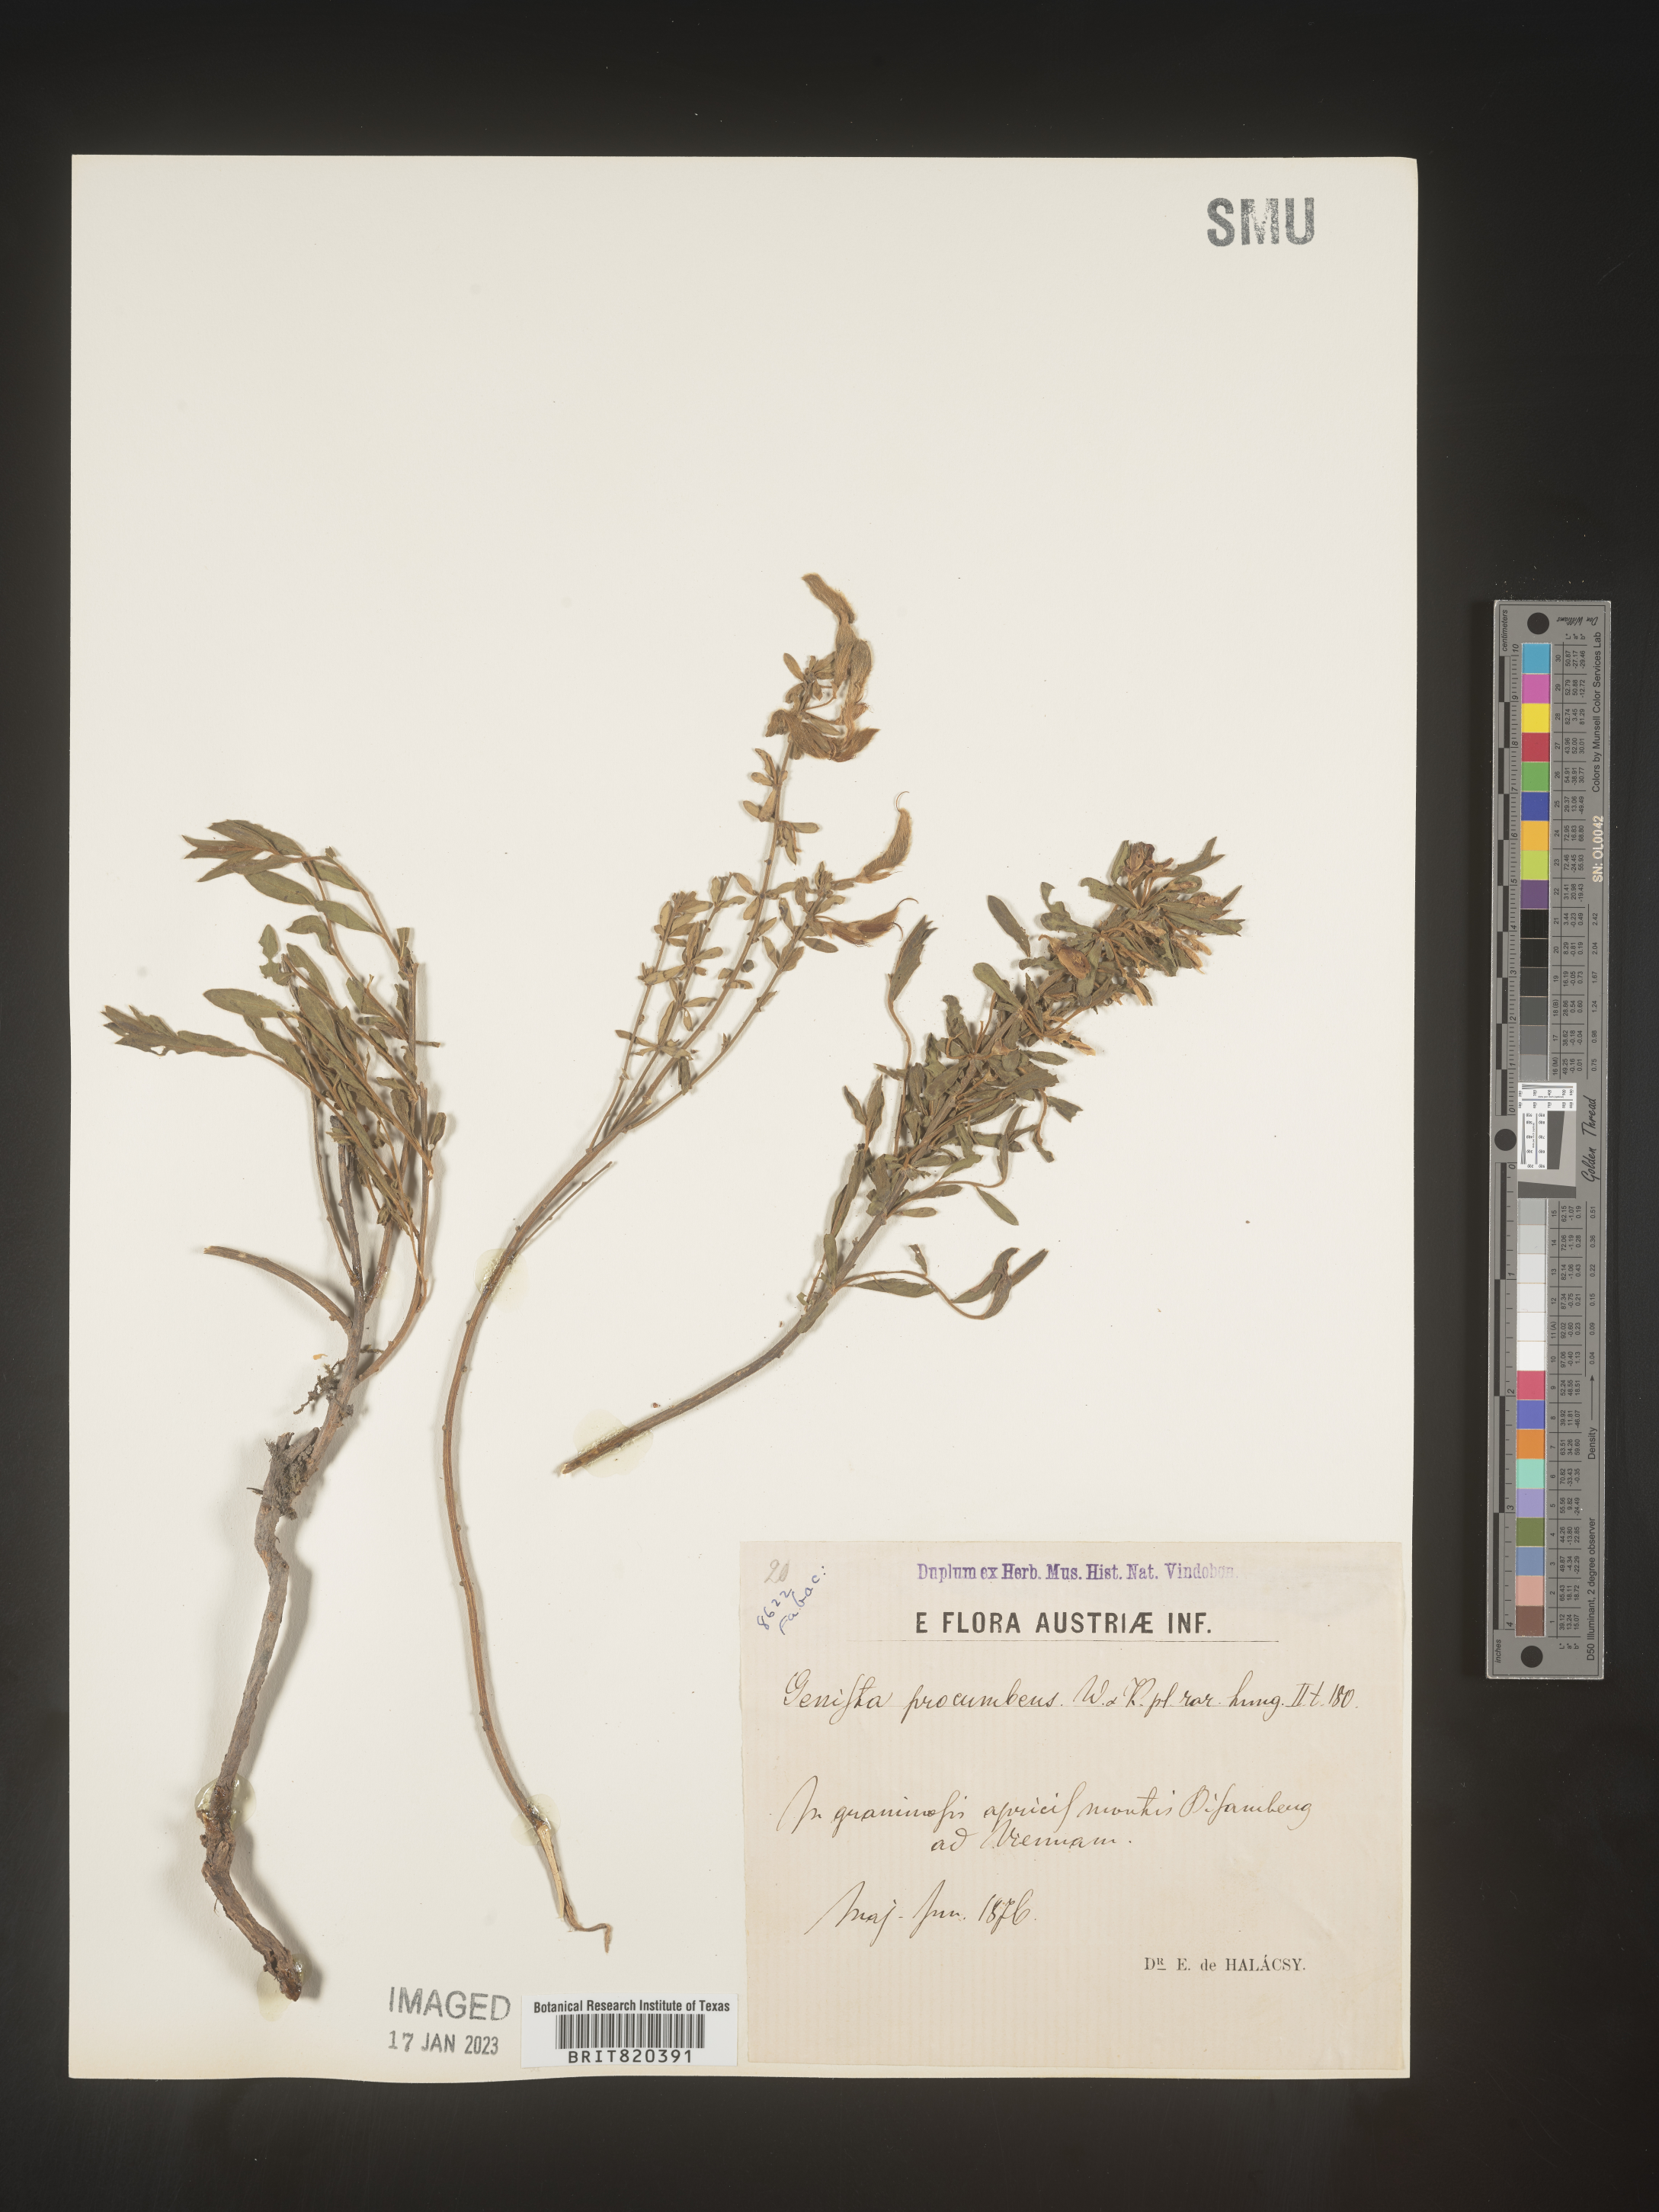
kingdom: Plantae
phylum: Tracheophyta
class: Magnoliopsida
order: Fabales
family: Fabaceae
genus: Genista
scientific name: Genista
